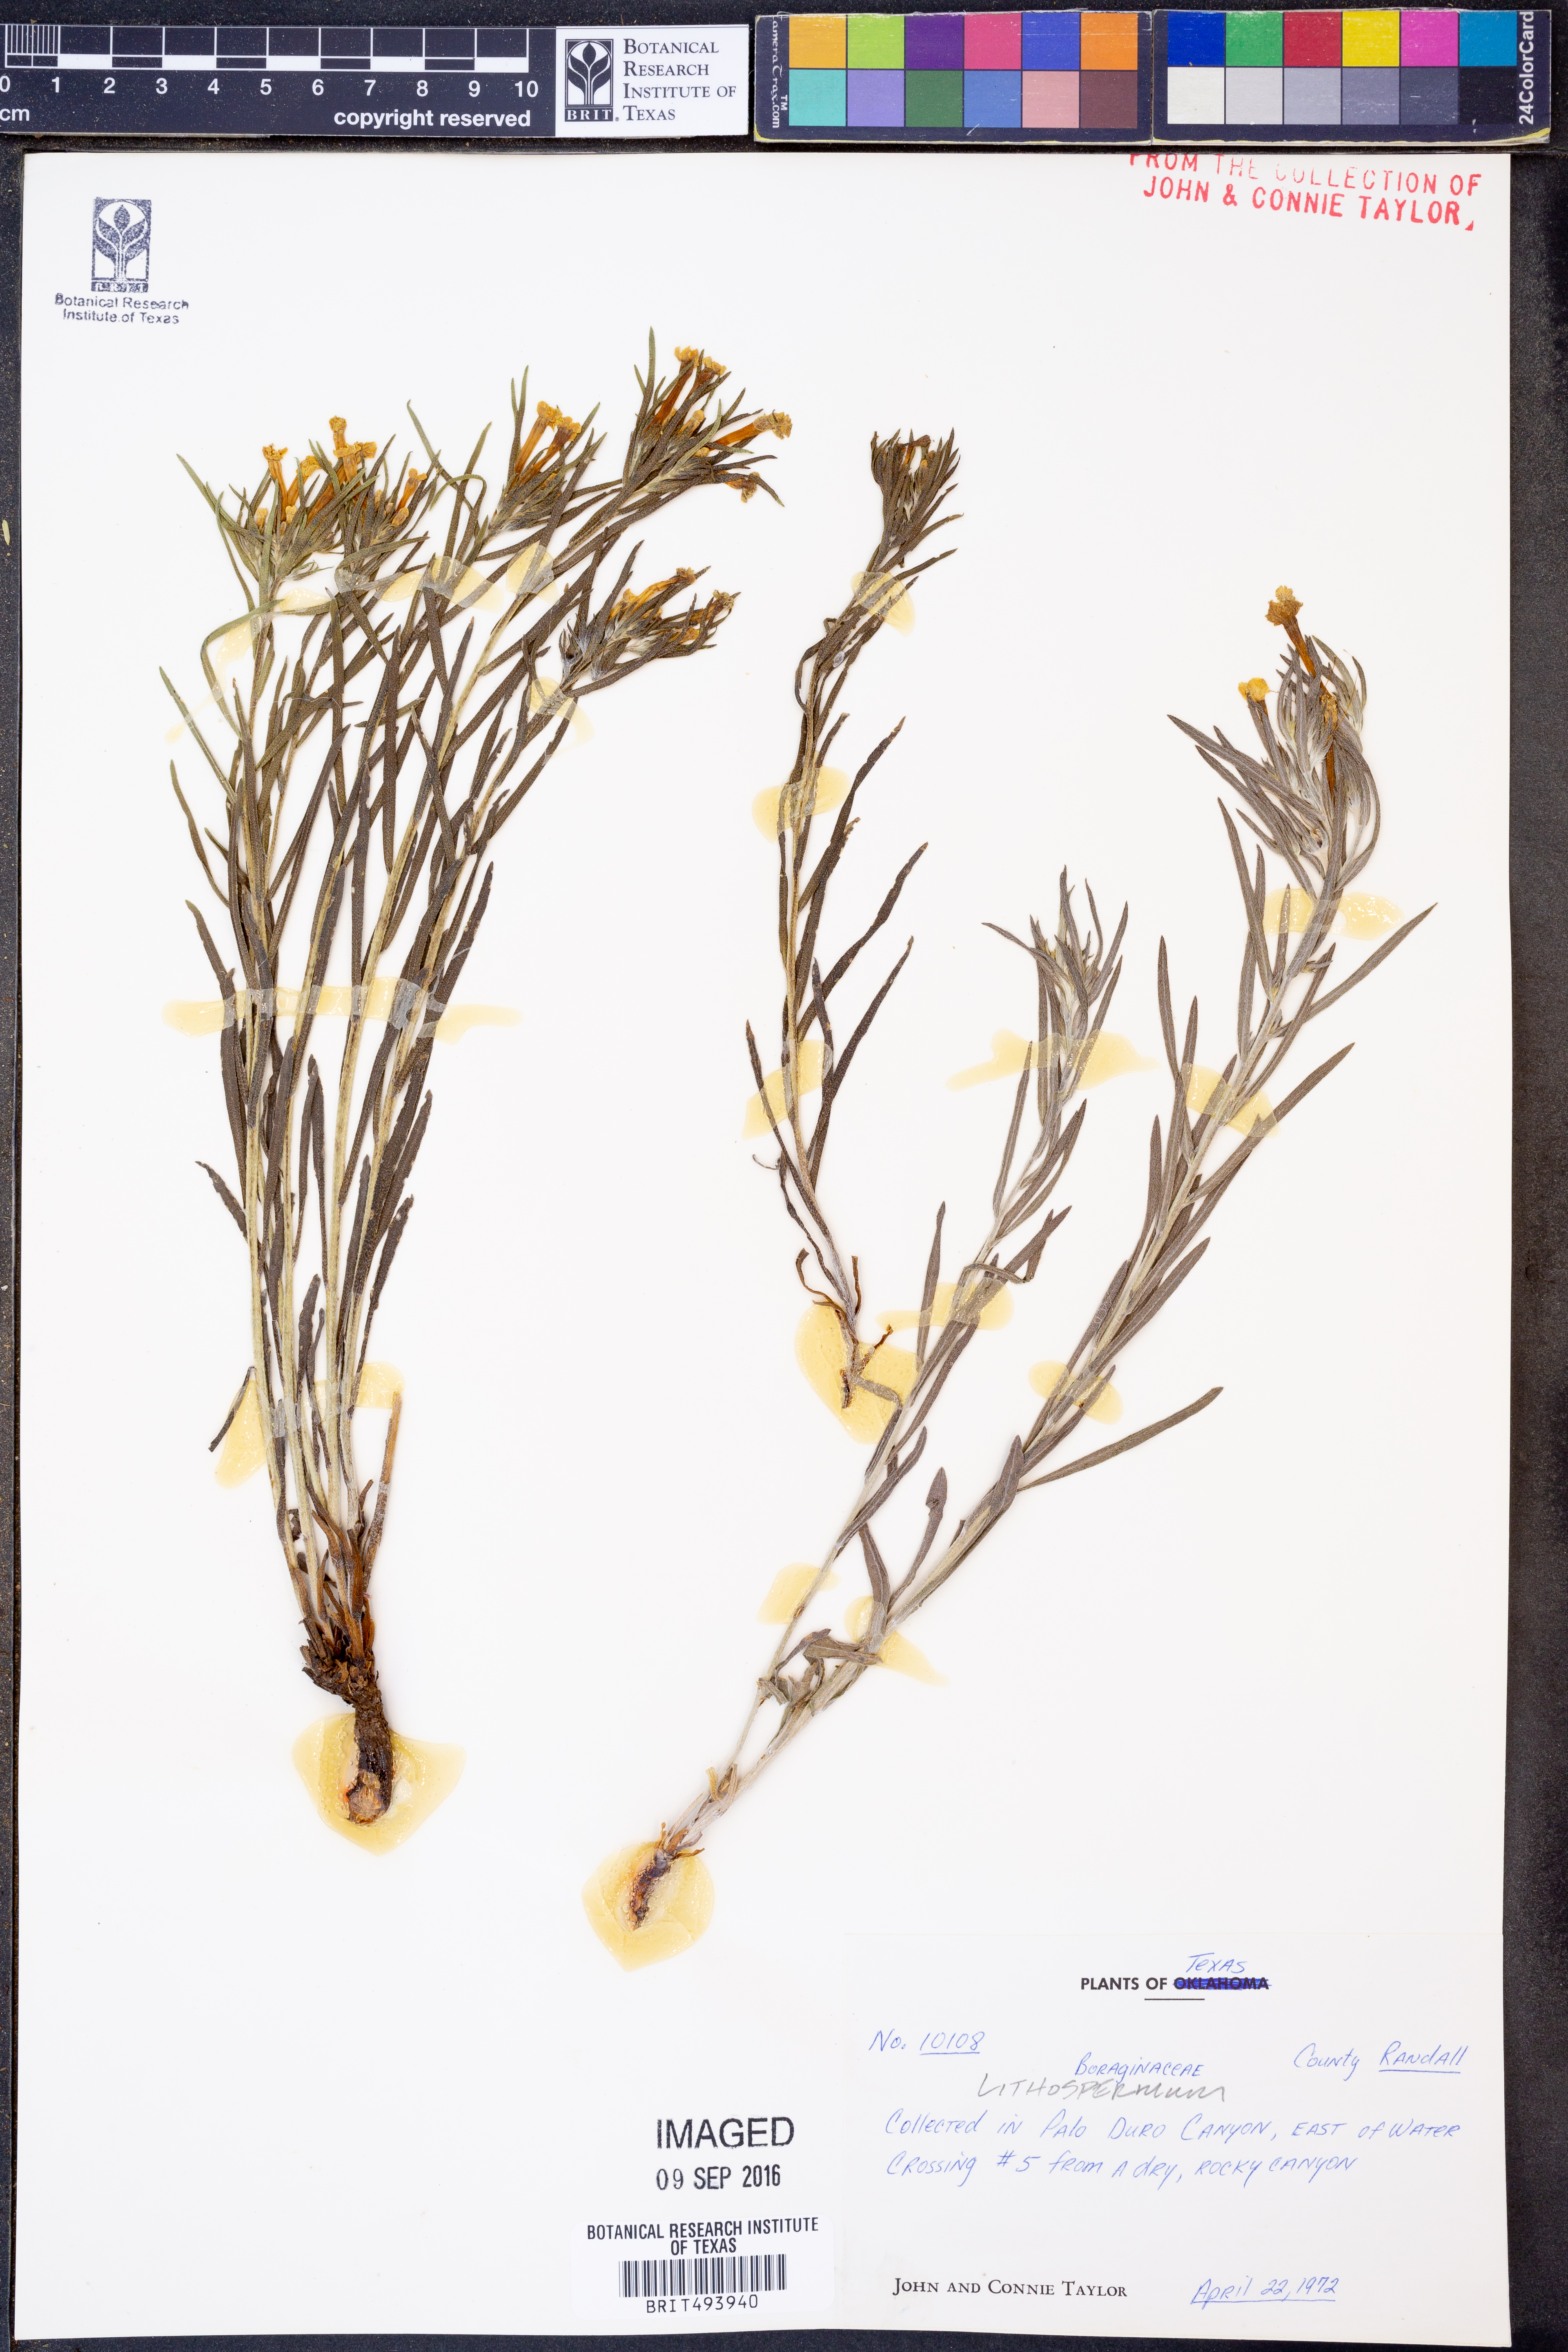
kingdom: Plantae
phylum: Tracheophyta
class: Magnoliopsida
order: Boraginales
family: Boraginaceae
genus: Lithospermum
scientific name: Lithospermum
